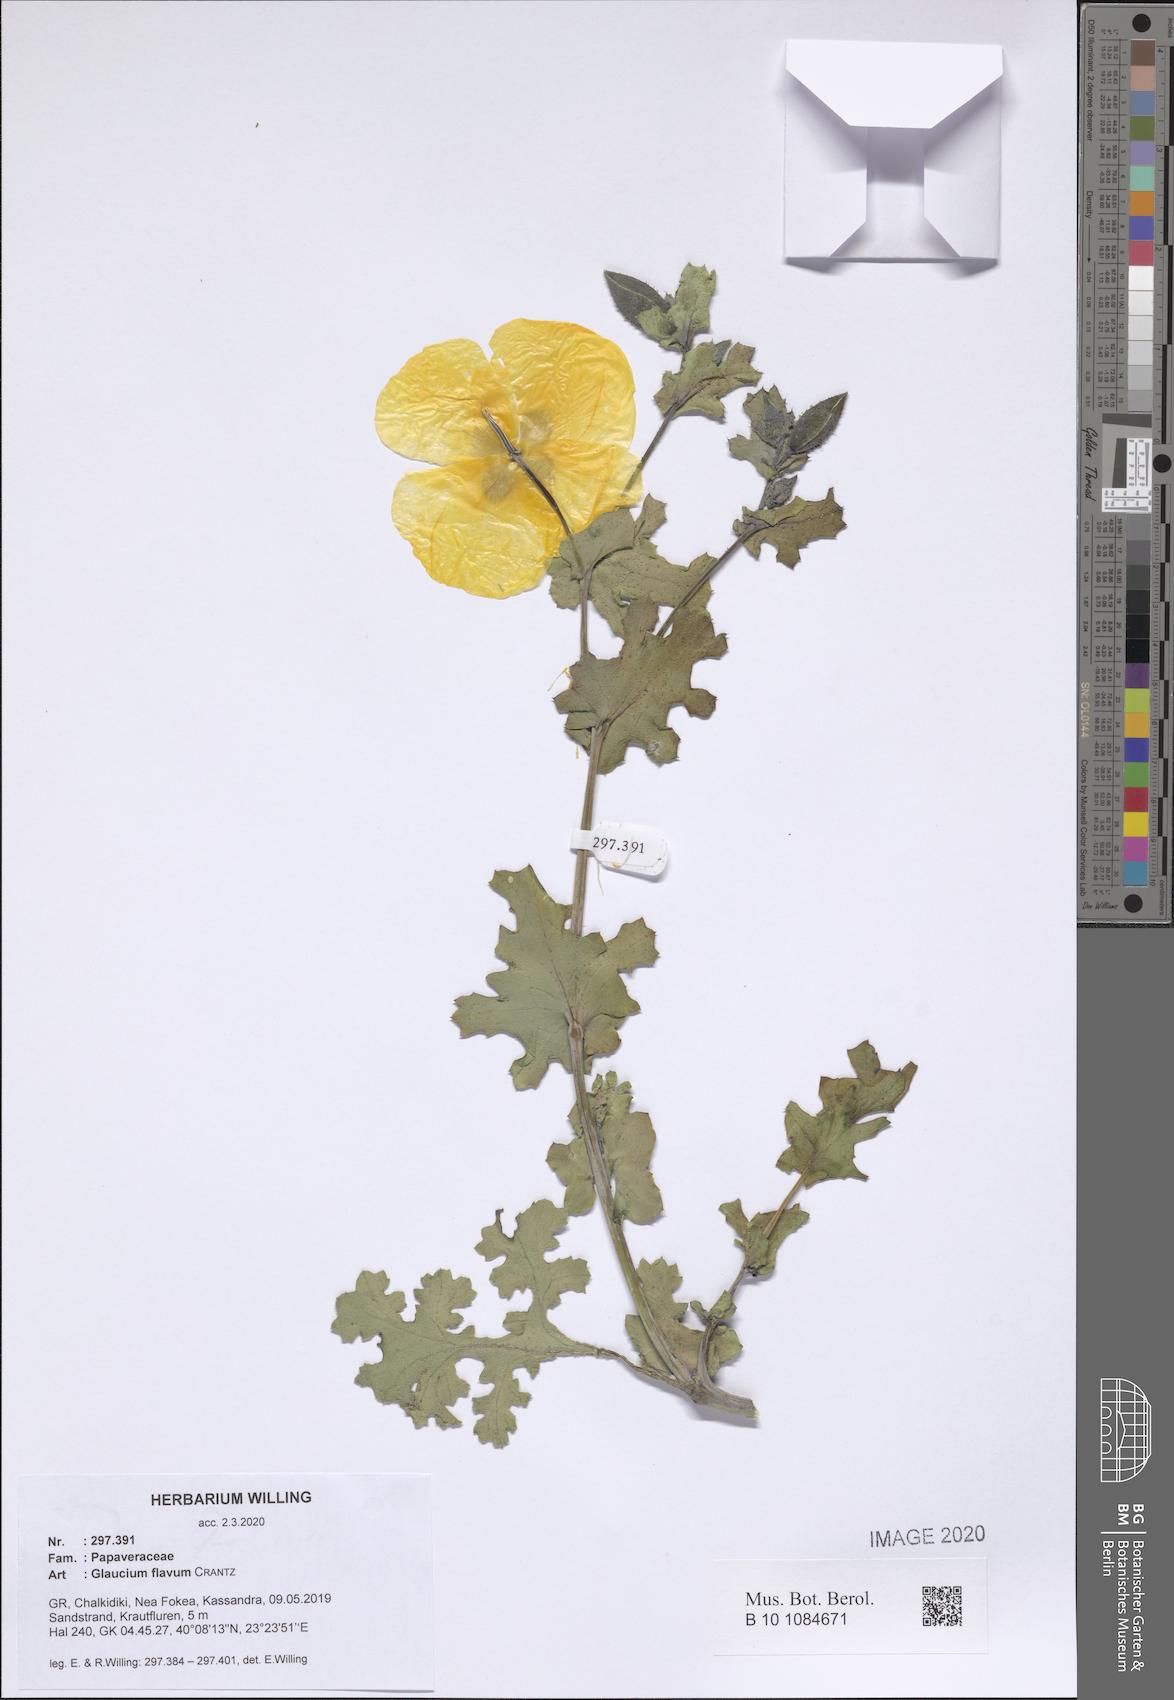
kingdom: Plantae
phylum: Tracheophyta
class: Magnoliopsida
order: Ranunculales
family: Papaveraceae
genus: Glaucium
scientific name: Glaucium flavum
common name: Yellow horned-poppy
